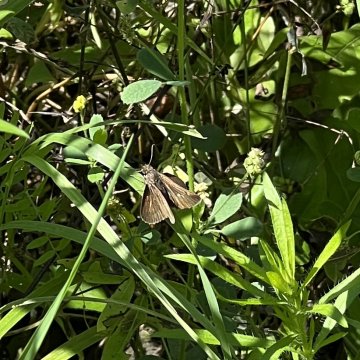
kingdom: Animalia
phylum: Arthropoda
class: Insecta
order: Lepidoptera
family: Hesperiidae
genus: Euphyes
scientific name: Euphyes vestris
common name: Dun Skipper
